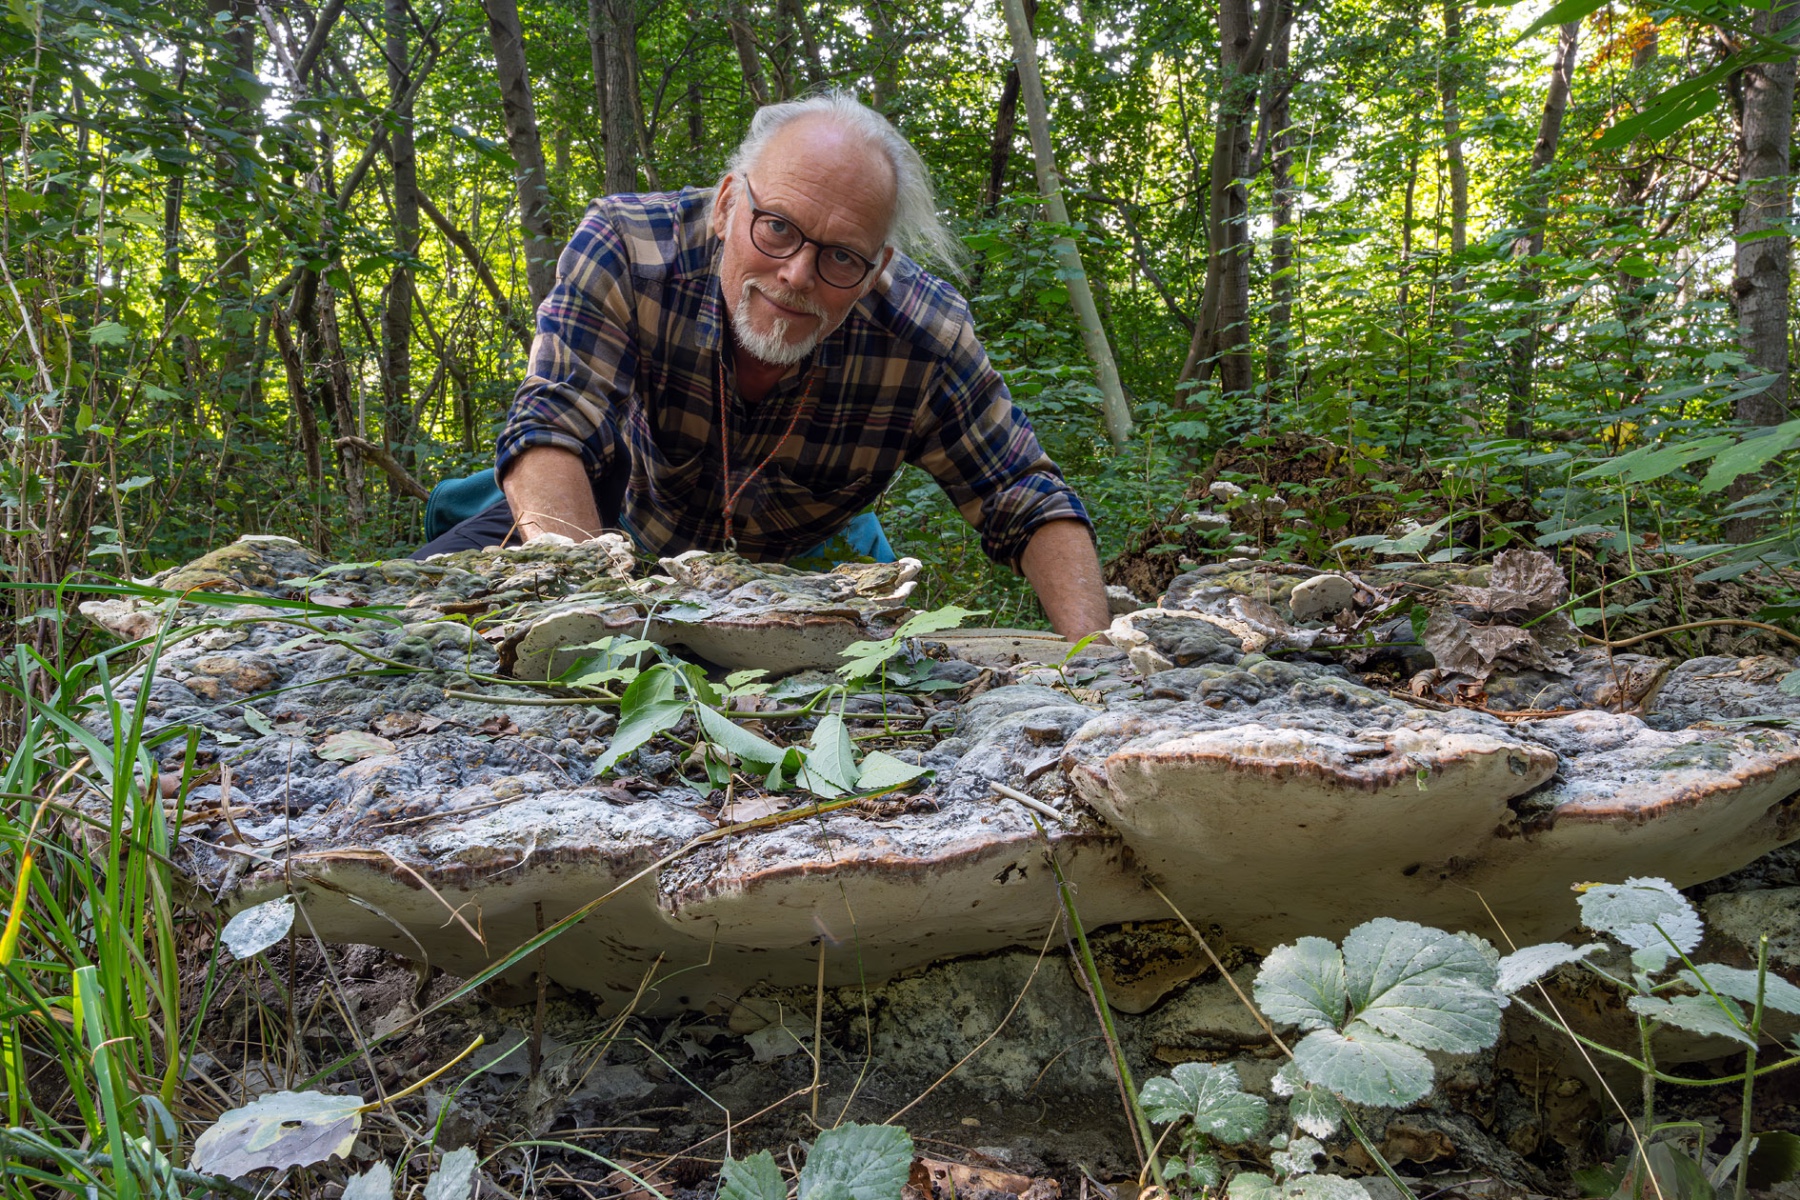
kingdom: Fungi
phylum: Basidiomycota
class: Agaricomycetes
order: Polyporales
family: Polyporaceae
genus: Vanderbylia
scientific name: Vanderbylia fraxinea
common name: stor kanelporesvamp
